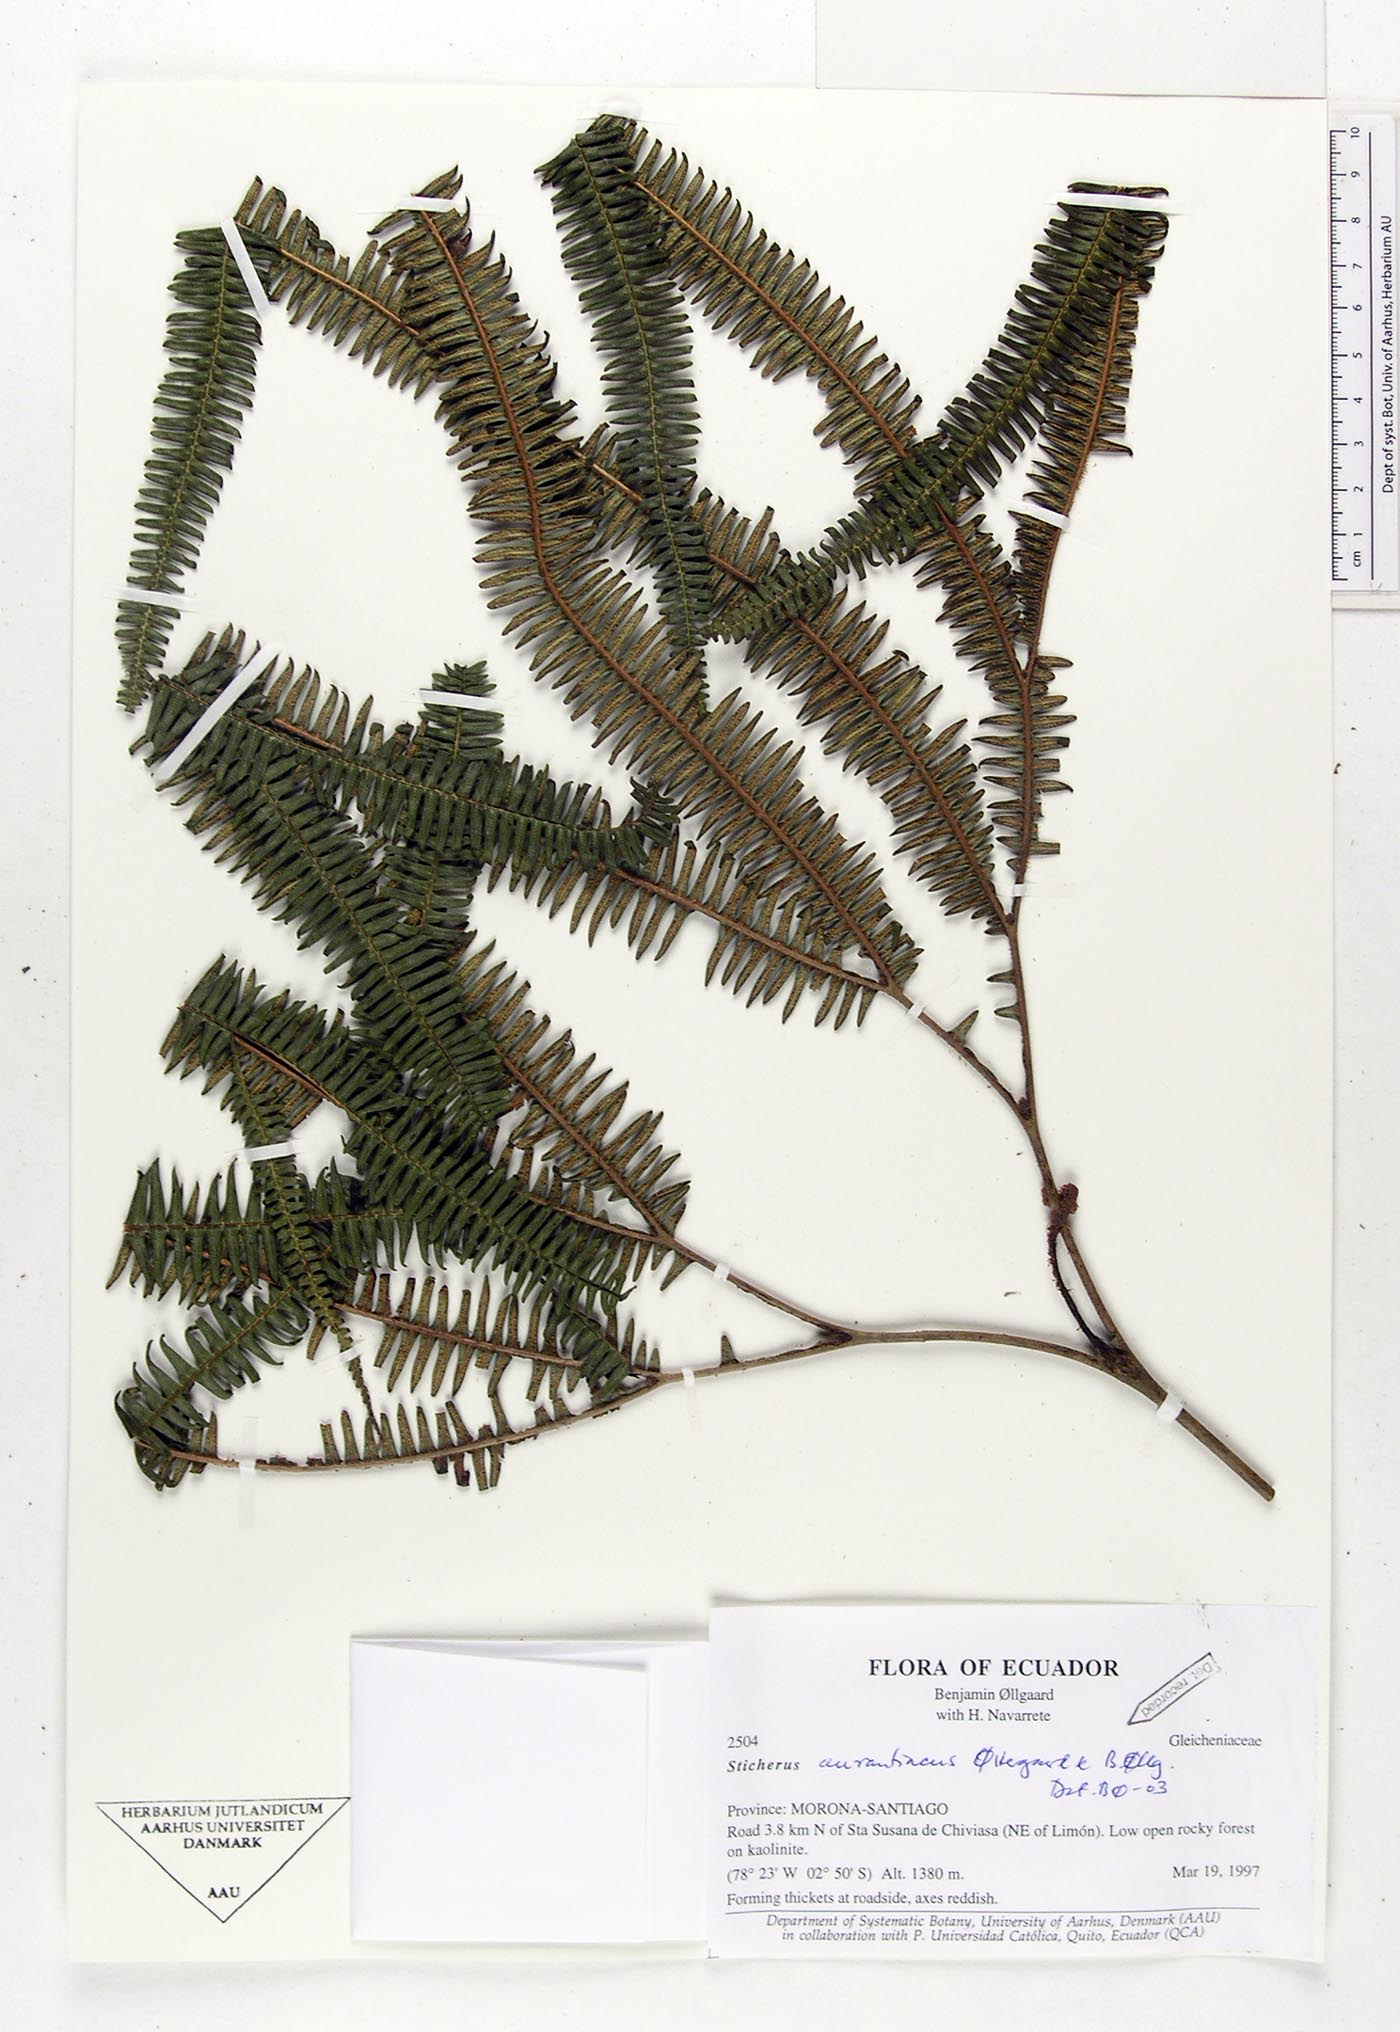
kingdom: Plantae
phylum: Tracheophyta
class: Polypodiopsida
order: Gleicheniales
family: Gleicheniaceae
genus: Sticherus
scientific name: Sticherus aurantiacus
